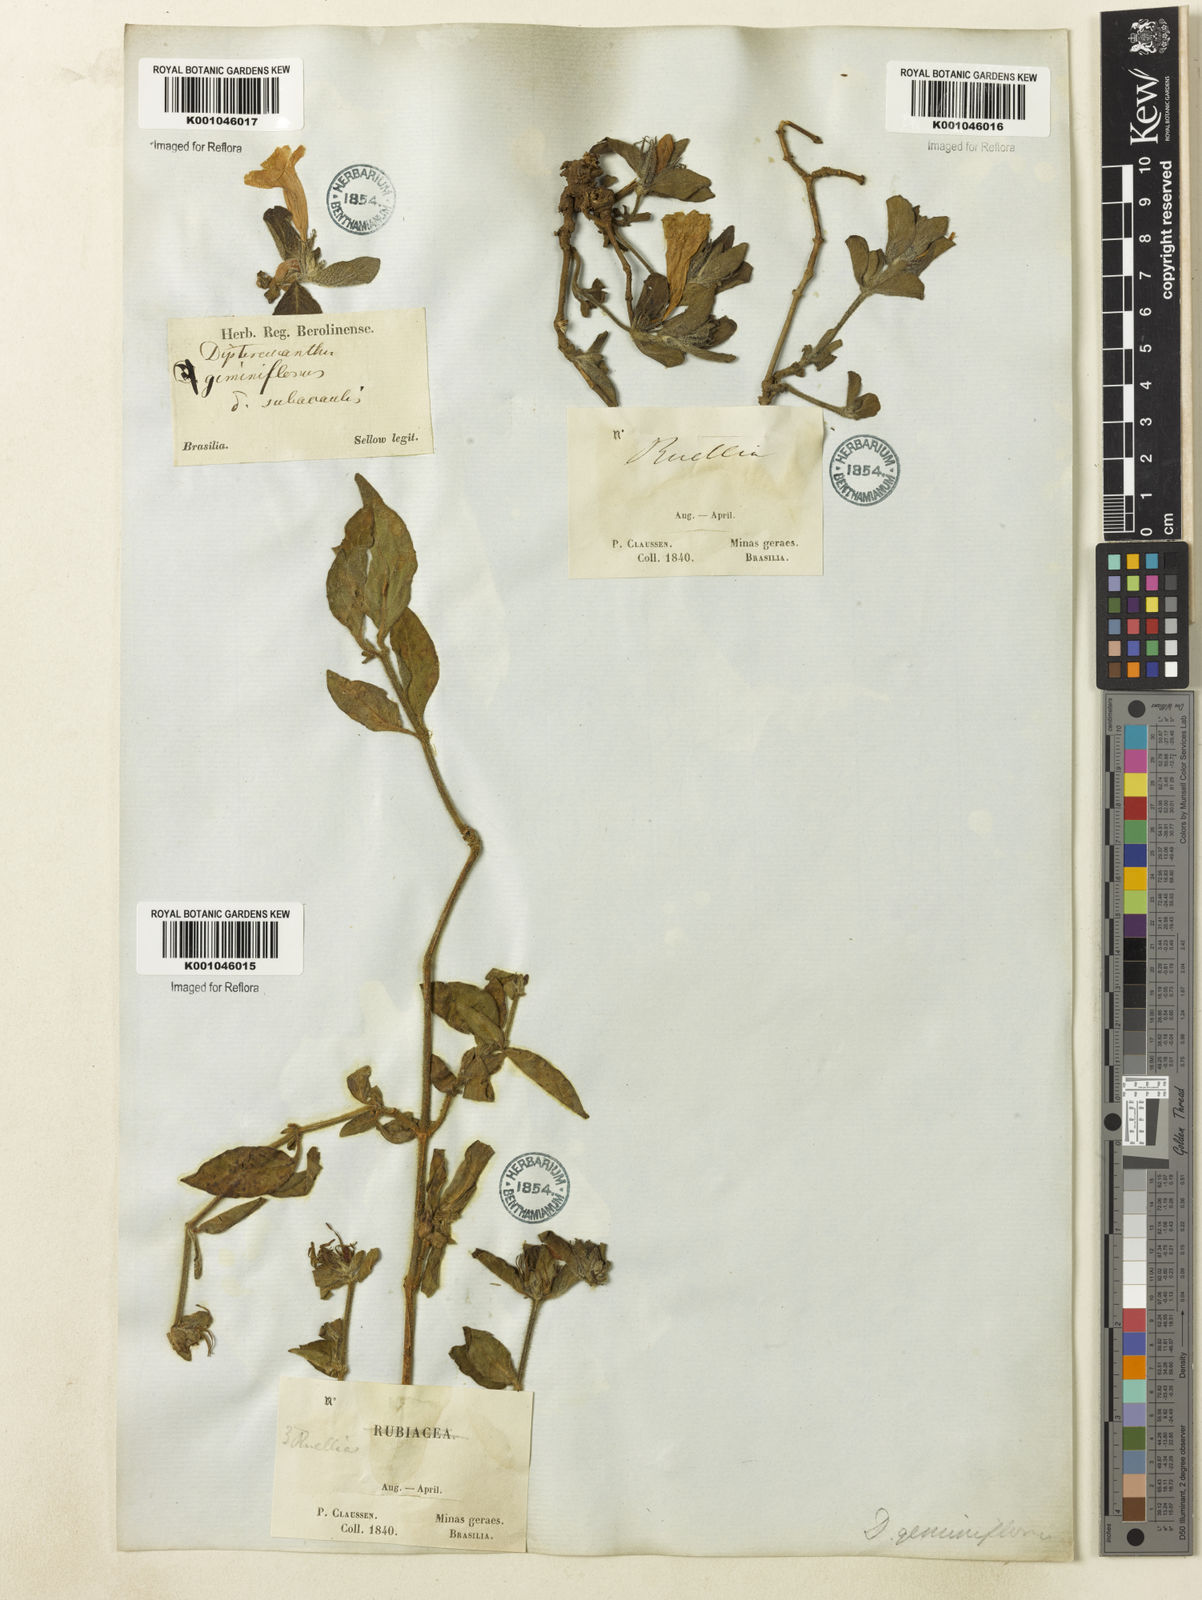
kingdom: Plantae
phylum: Tracheophyta
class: Magnoliopsida
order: Lamiales
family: Acanthaceae
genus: Ruellia
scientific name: Ruellia geminiflora
